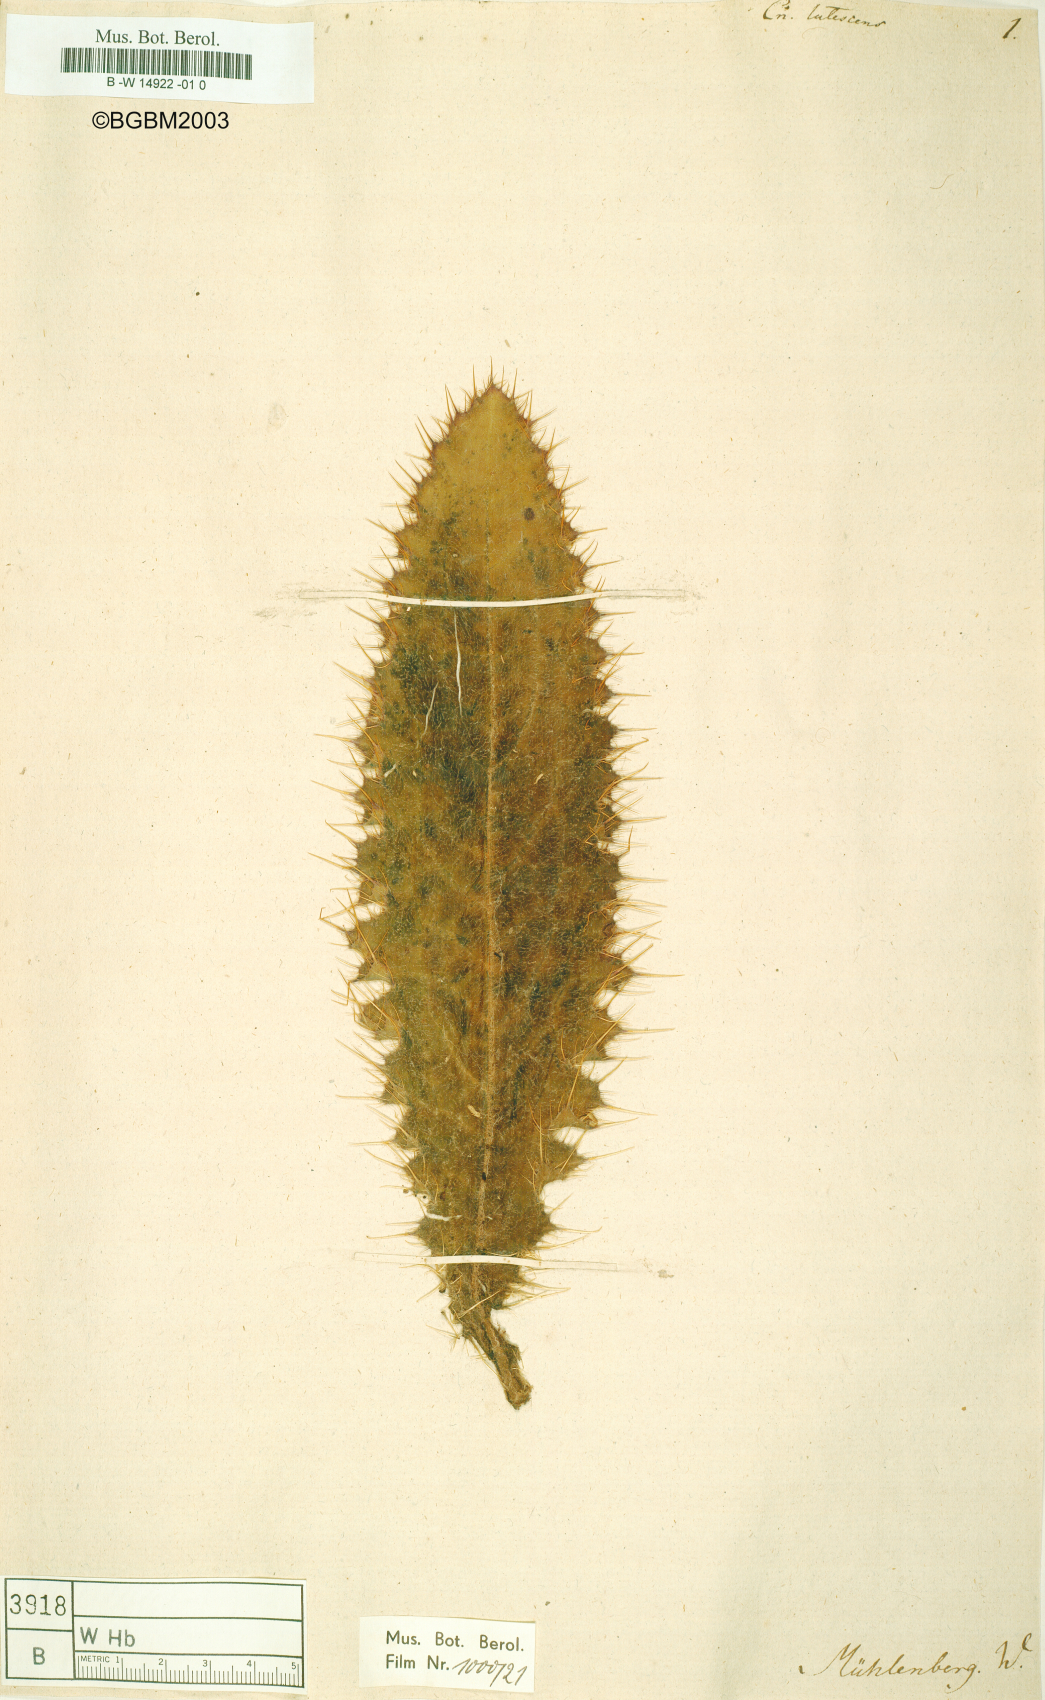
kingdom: Plantae
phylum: Tracheophyta
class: Magnoliopsida
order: Asterales
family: Asteraceae
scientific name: Asteraceae
